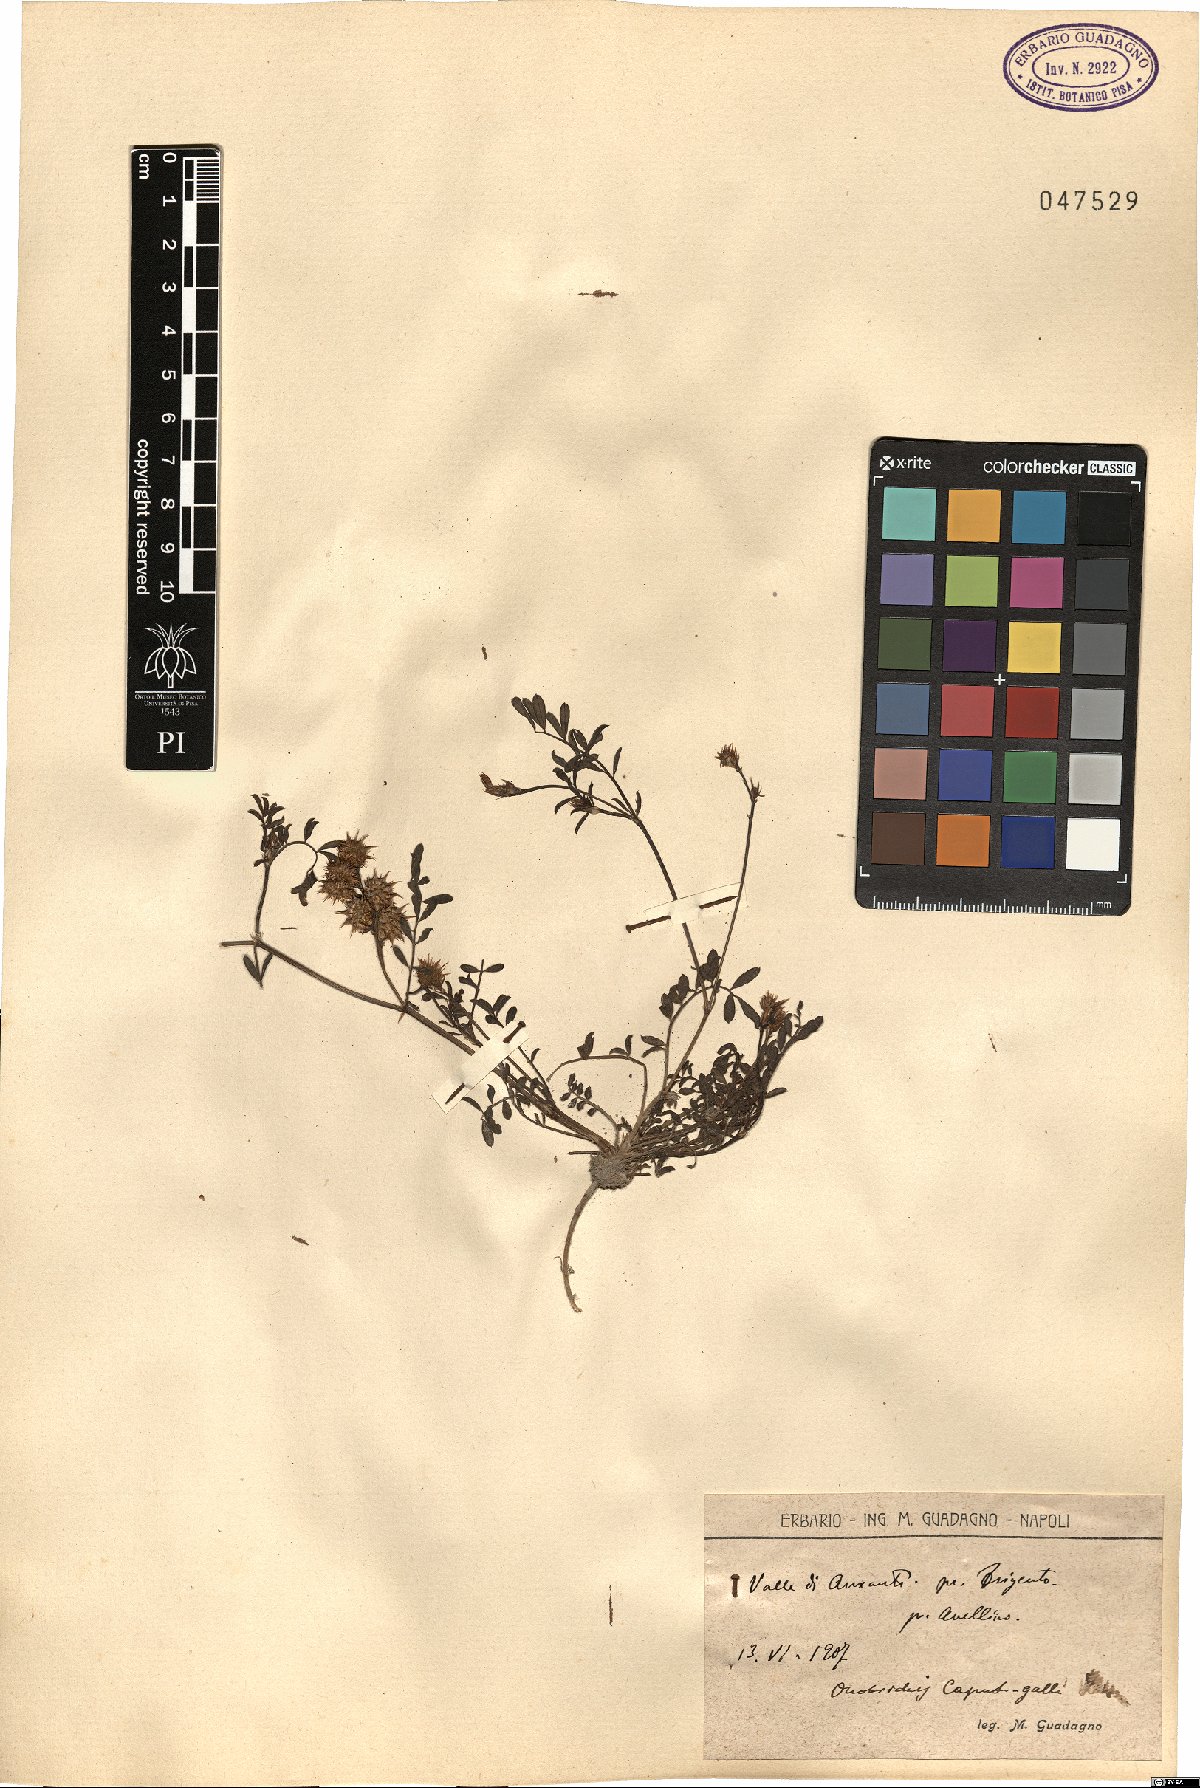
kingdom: Plantae
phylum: Tracheophyta
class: Magnoliopsida
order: Fabales
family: Fabaceae
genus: Onobrychis
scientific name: Onobrychis caput-galli
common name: Cockscomb sainfoin
